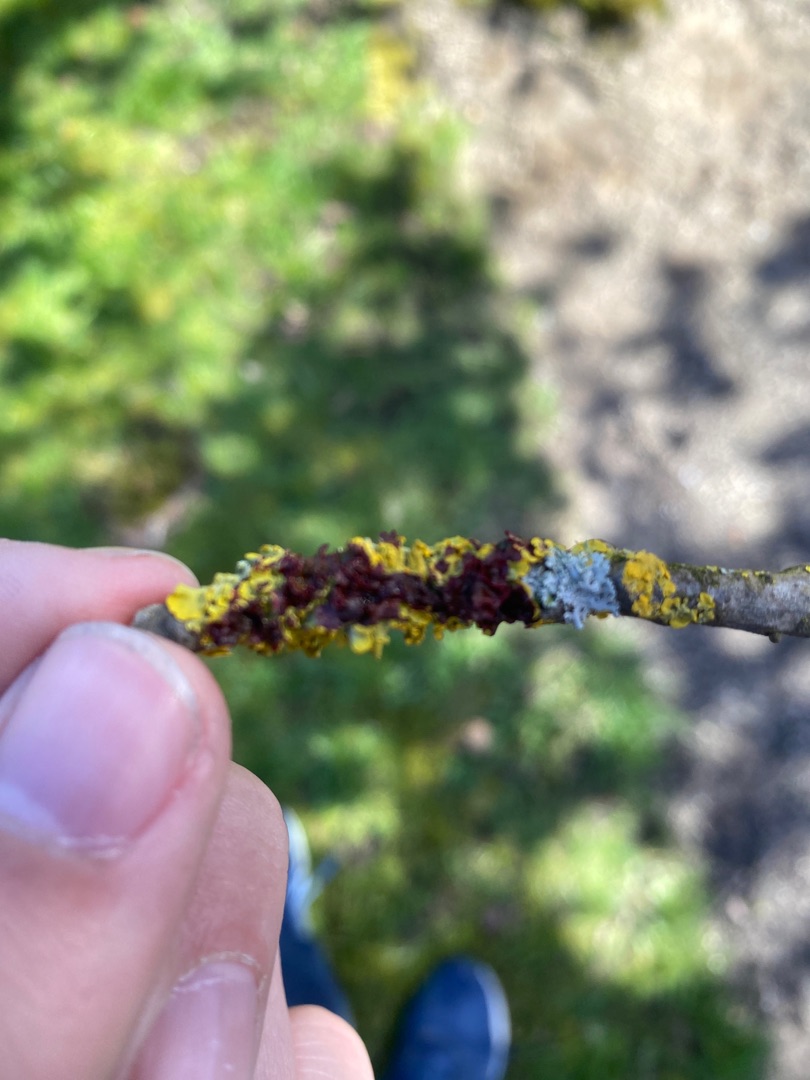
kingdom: Fungi
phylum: Ascomycota
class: Lecanoromycetes
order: Teloschistales
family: Teloschistaceae
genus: Xanthoria
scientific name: Xanthoria parietina
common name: Almindelig væggelav
